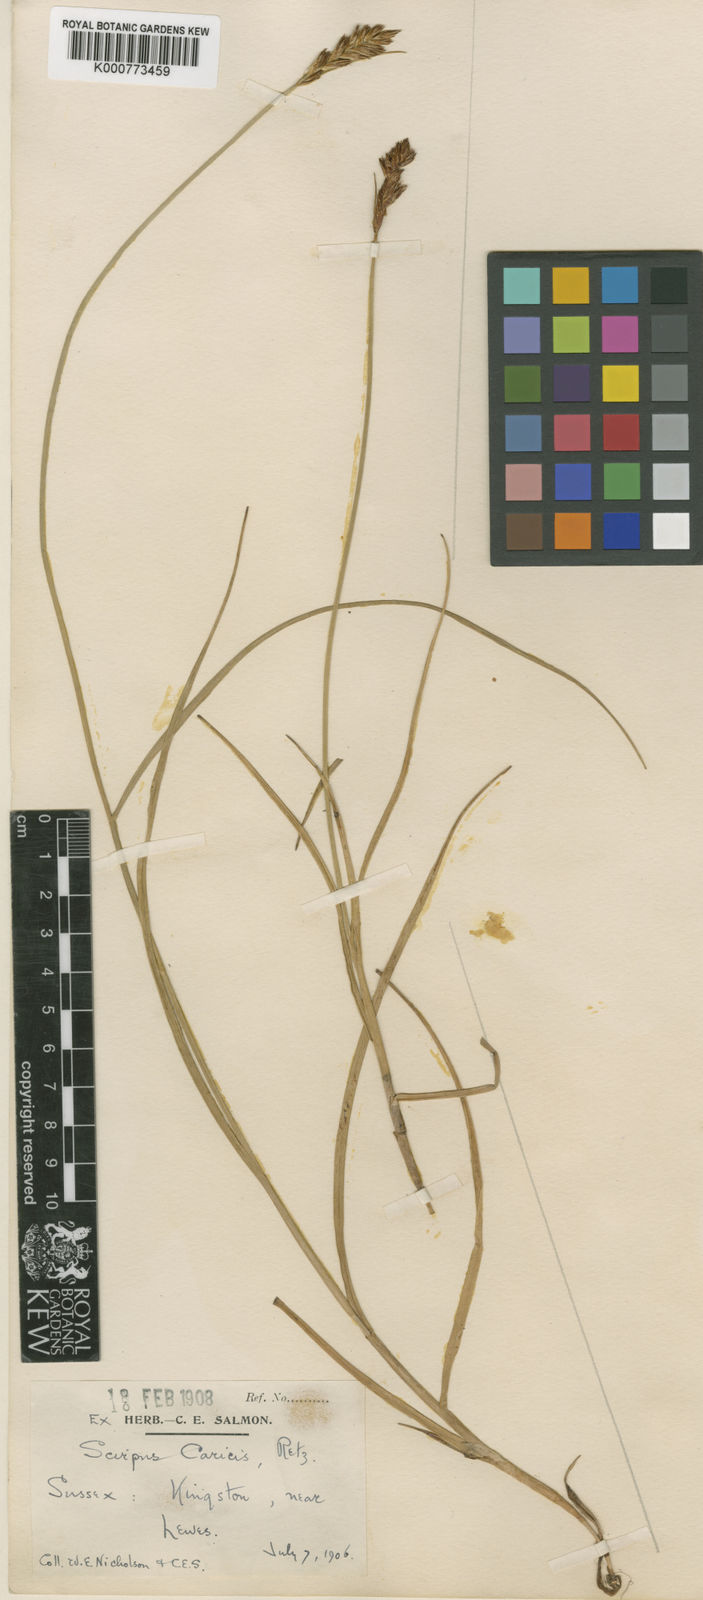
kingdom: Plantae
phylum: Tracheophyta
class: Liliopsida
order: Poales
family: Cyperaceae
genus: Blysmus
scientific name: Blysmus compressus
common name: Flat-sedge
